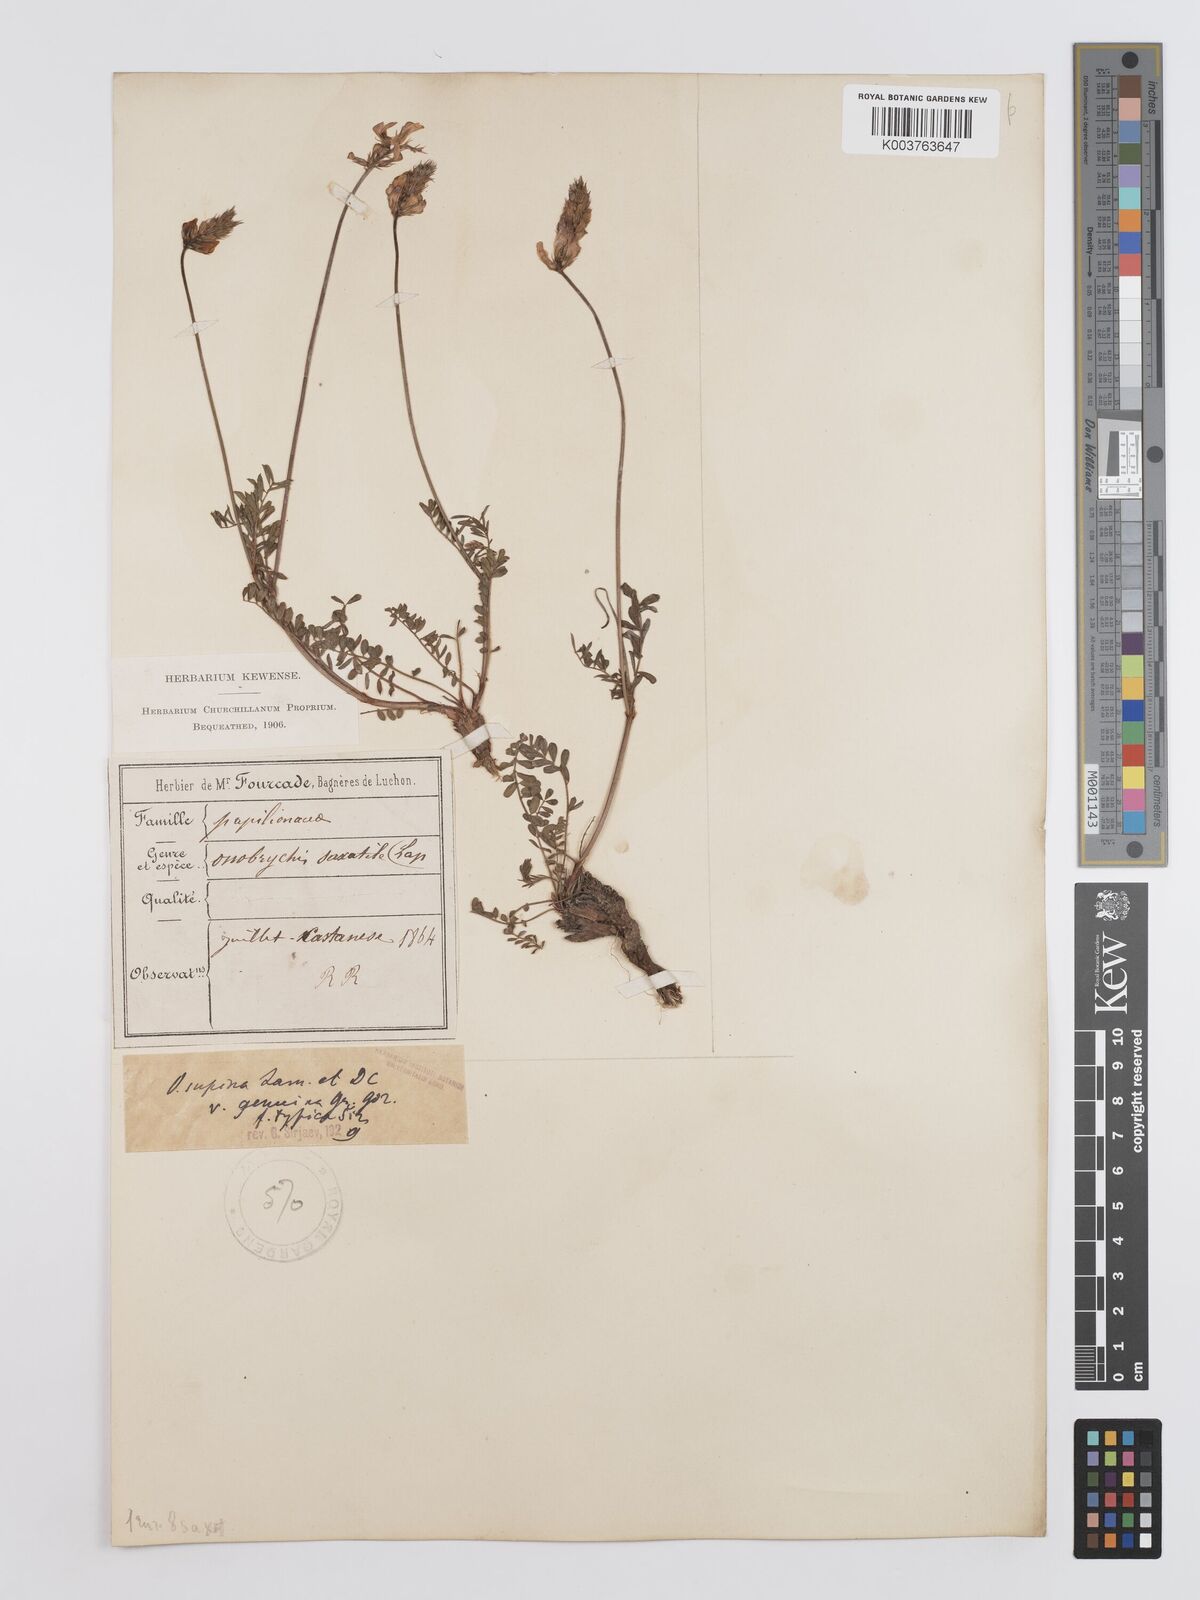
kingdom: Plantae
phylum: Tracheophyta
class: Magnoliopsida
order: Fabales
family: Fabaceae
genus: Onobrychis
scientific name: Onobrychis supina
